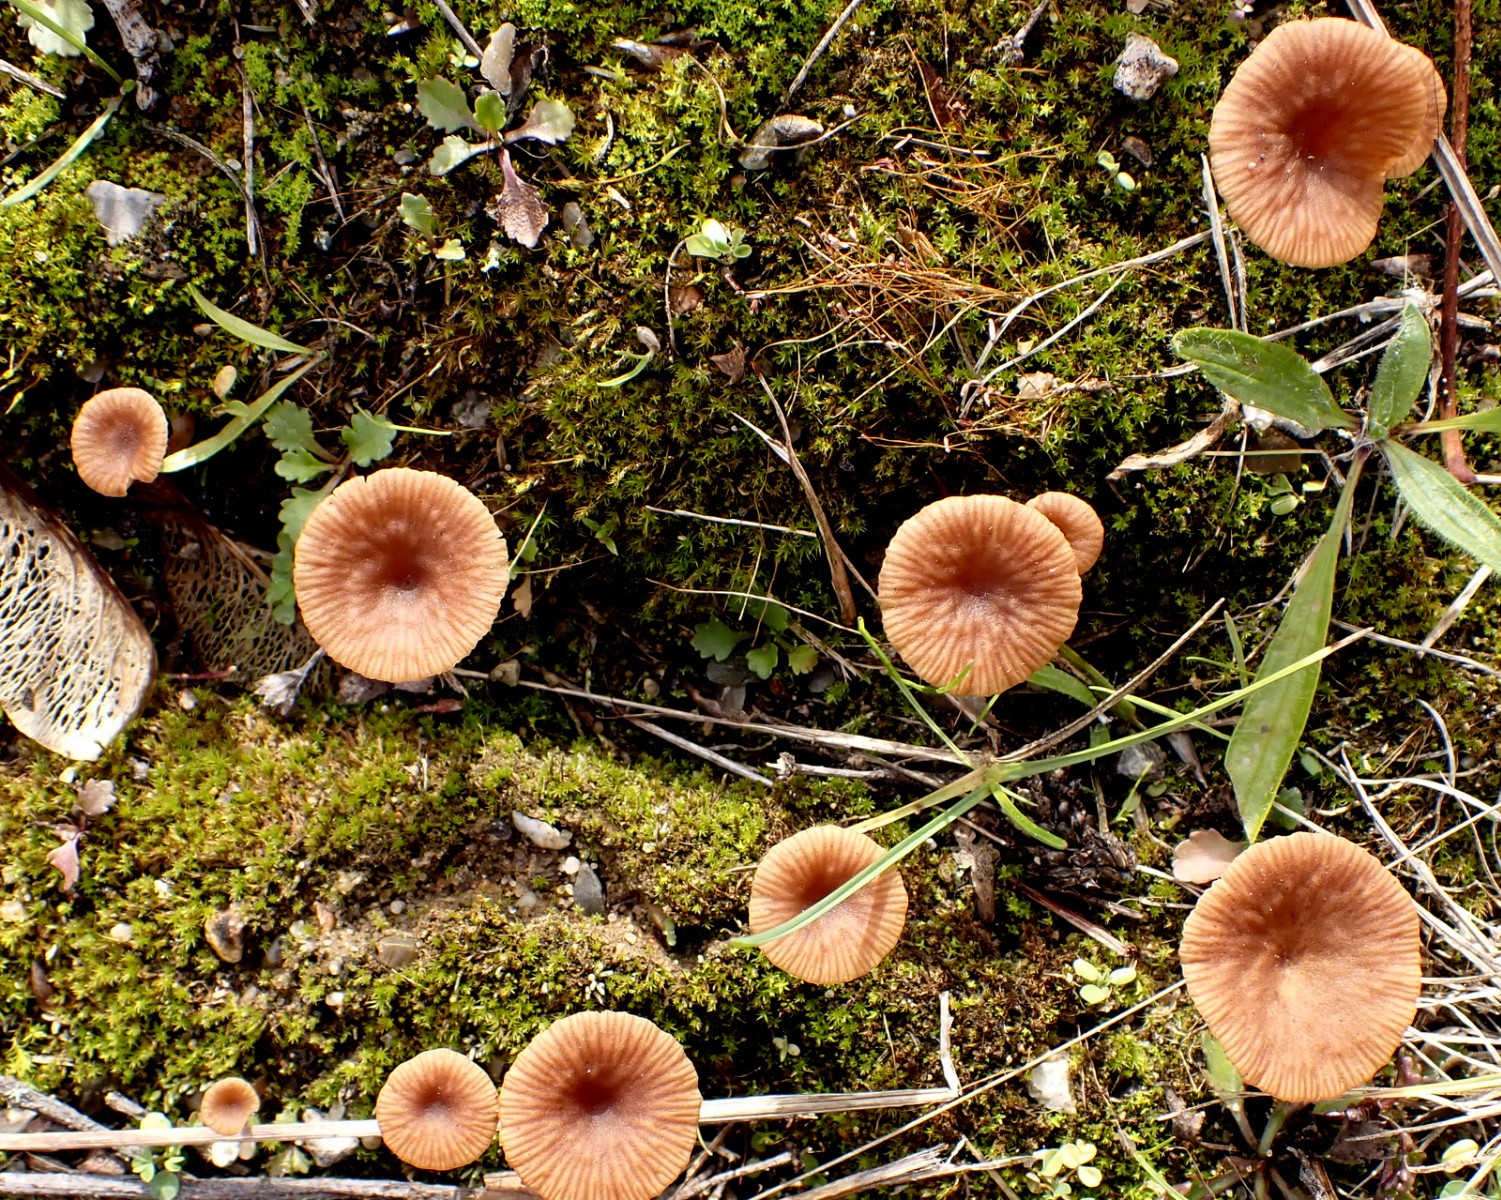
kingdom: Fungi
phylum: Basidiomycota
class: Agaricomycetes
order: Agaricales
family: Tricholomataceae
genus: Omphalina
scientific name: Omphalina pyxidata
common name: rødbrun navlehat
